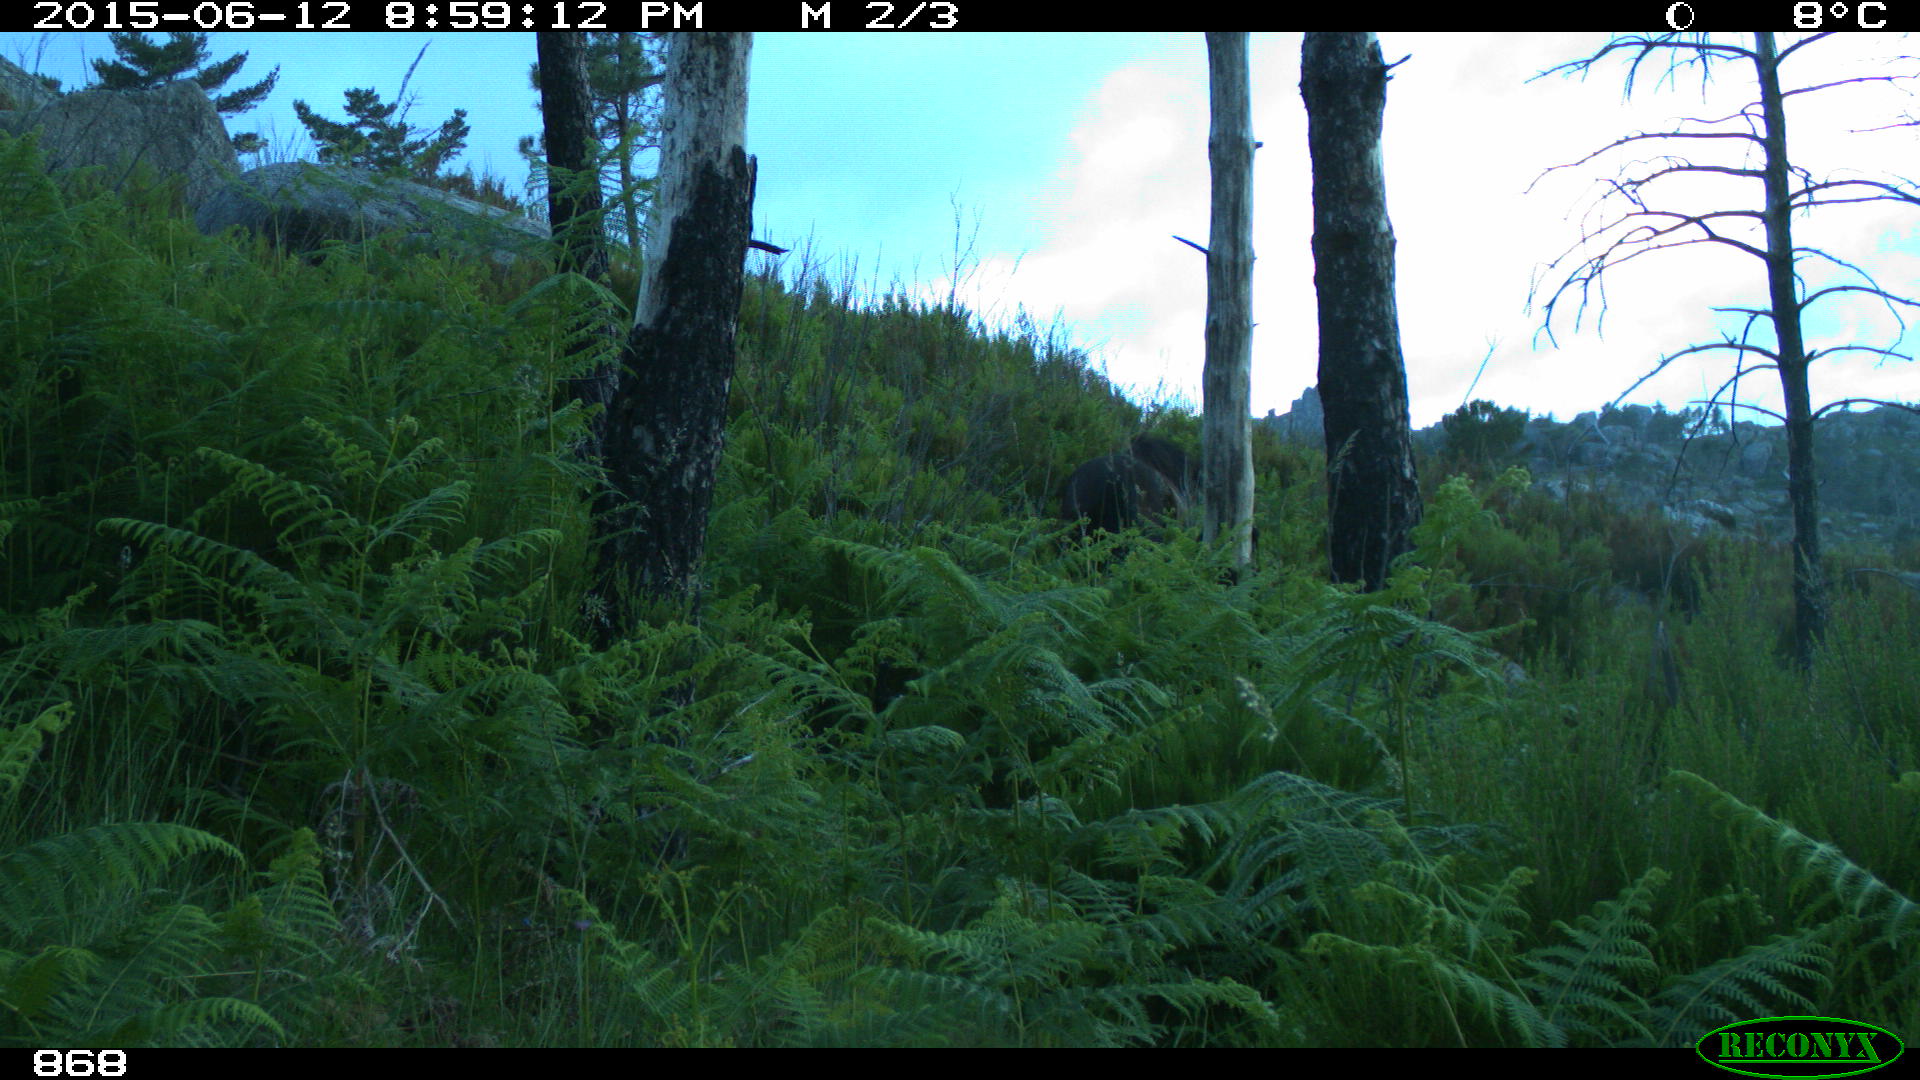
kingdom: Animalia
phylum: Chordata
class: Mammalia
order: Perissodactyla
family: Equidae
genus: Equus
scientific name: Equus caballus
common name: Horse
